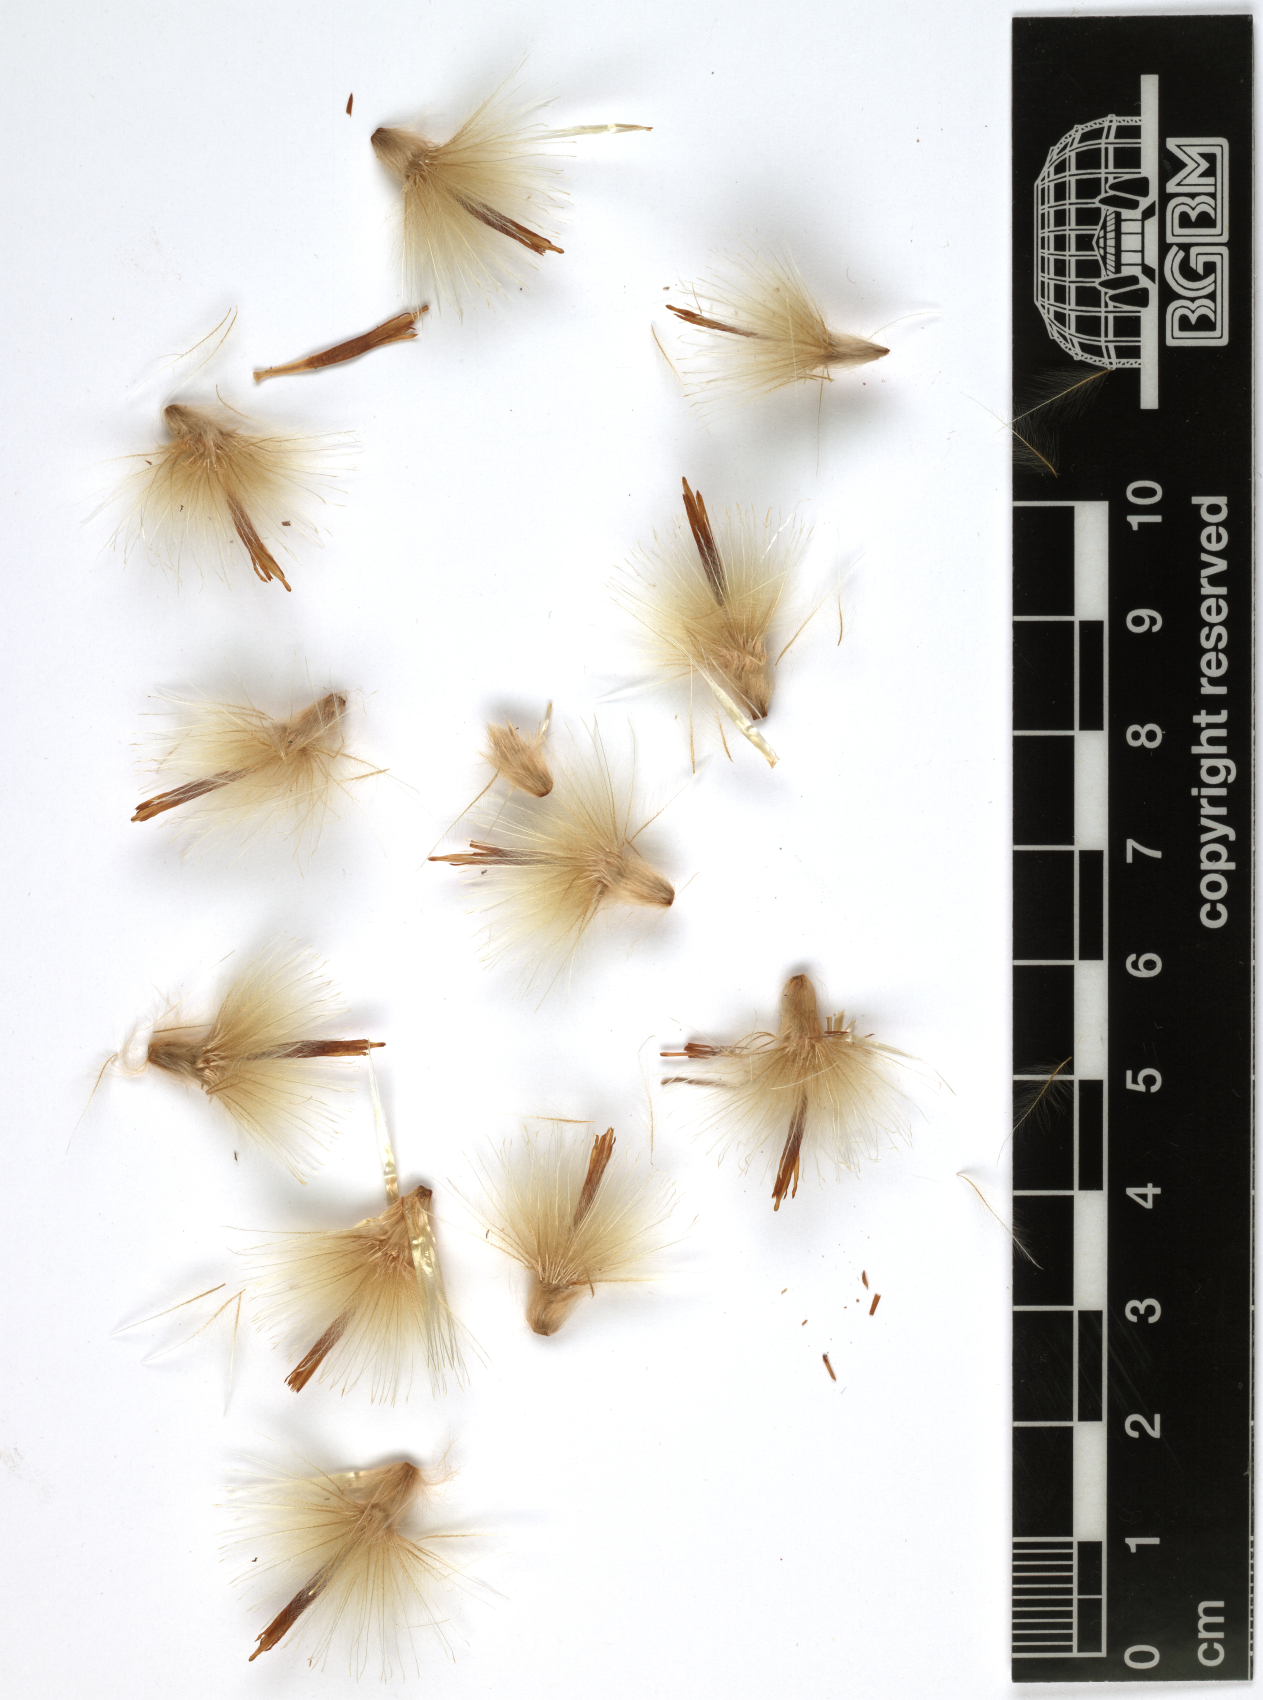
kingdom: Plantae
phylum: Tracheophyta
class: Magnoliopsida
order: Asterales
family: Asteraceae
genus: Atractylis
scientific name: Atractylis carduus
